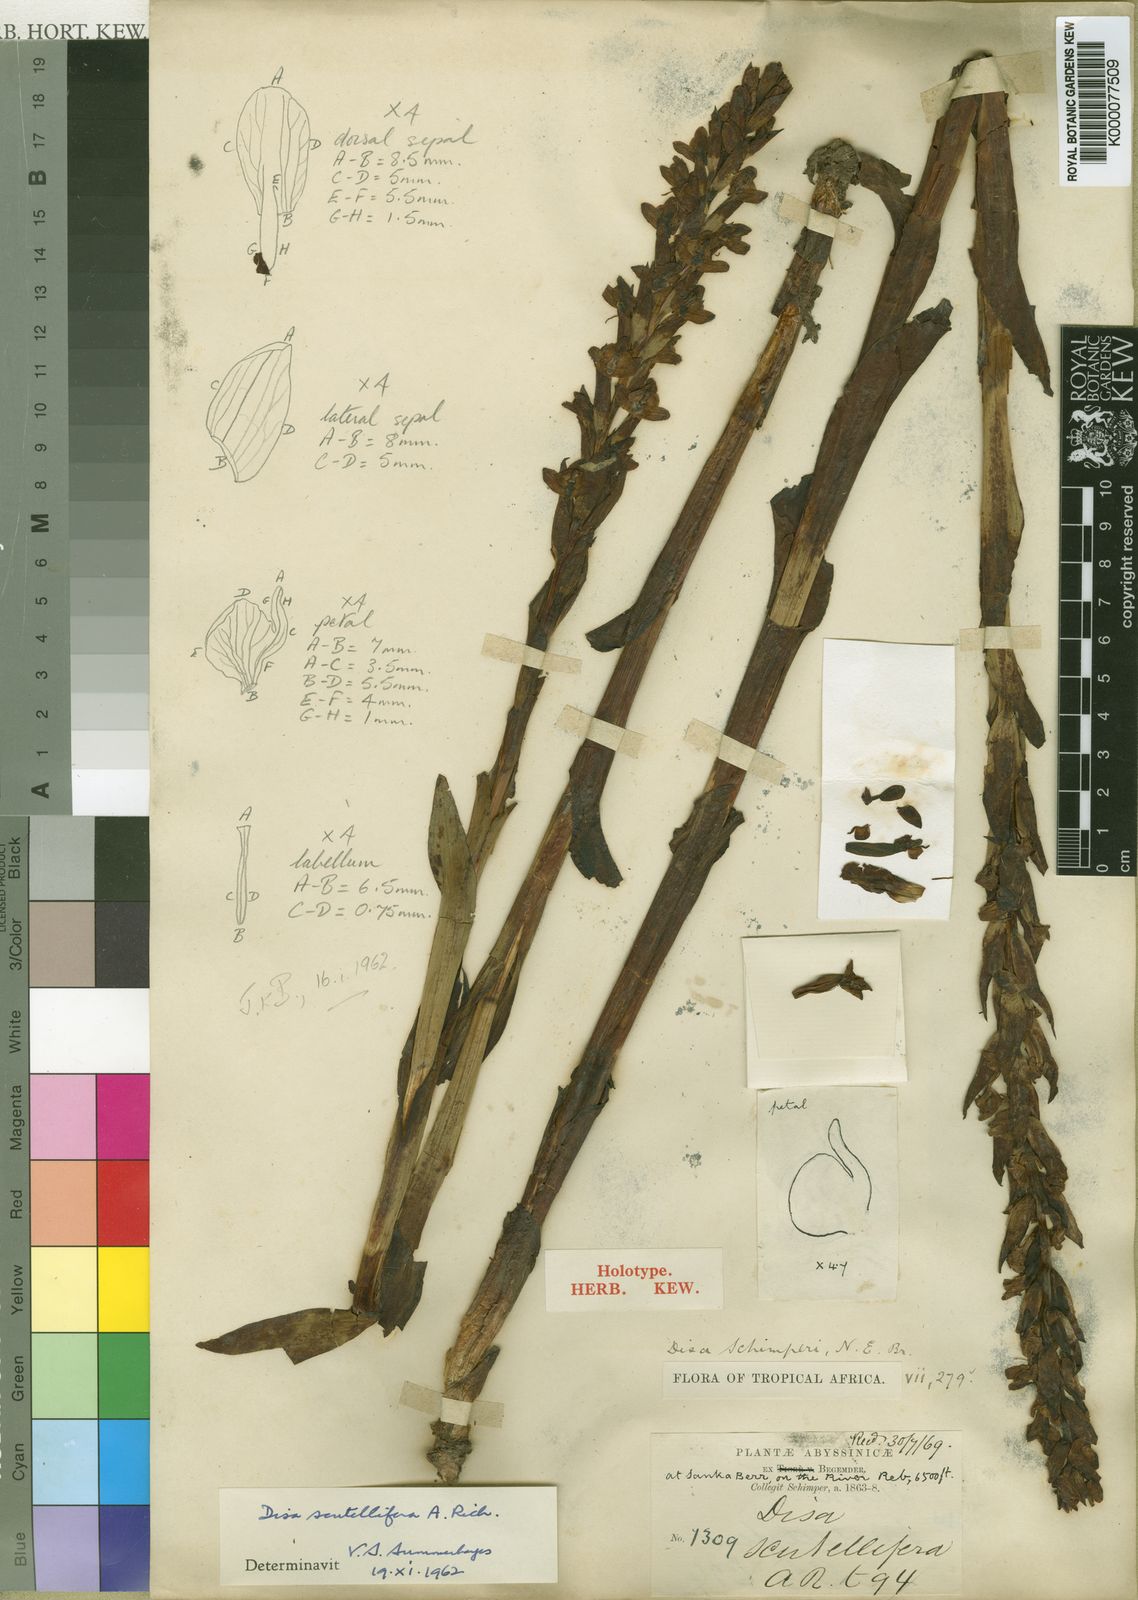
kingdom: Plantae
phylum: Tracheophyta
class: Liliopsida
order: Asparagales
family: Orchidaceae
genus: Disa
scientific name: Disa scutellifera
